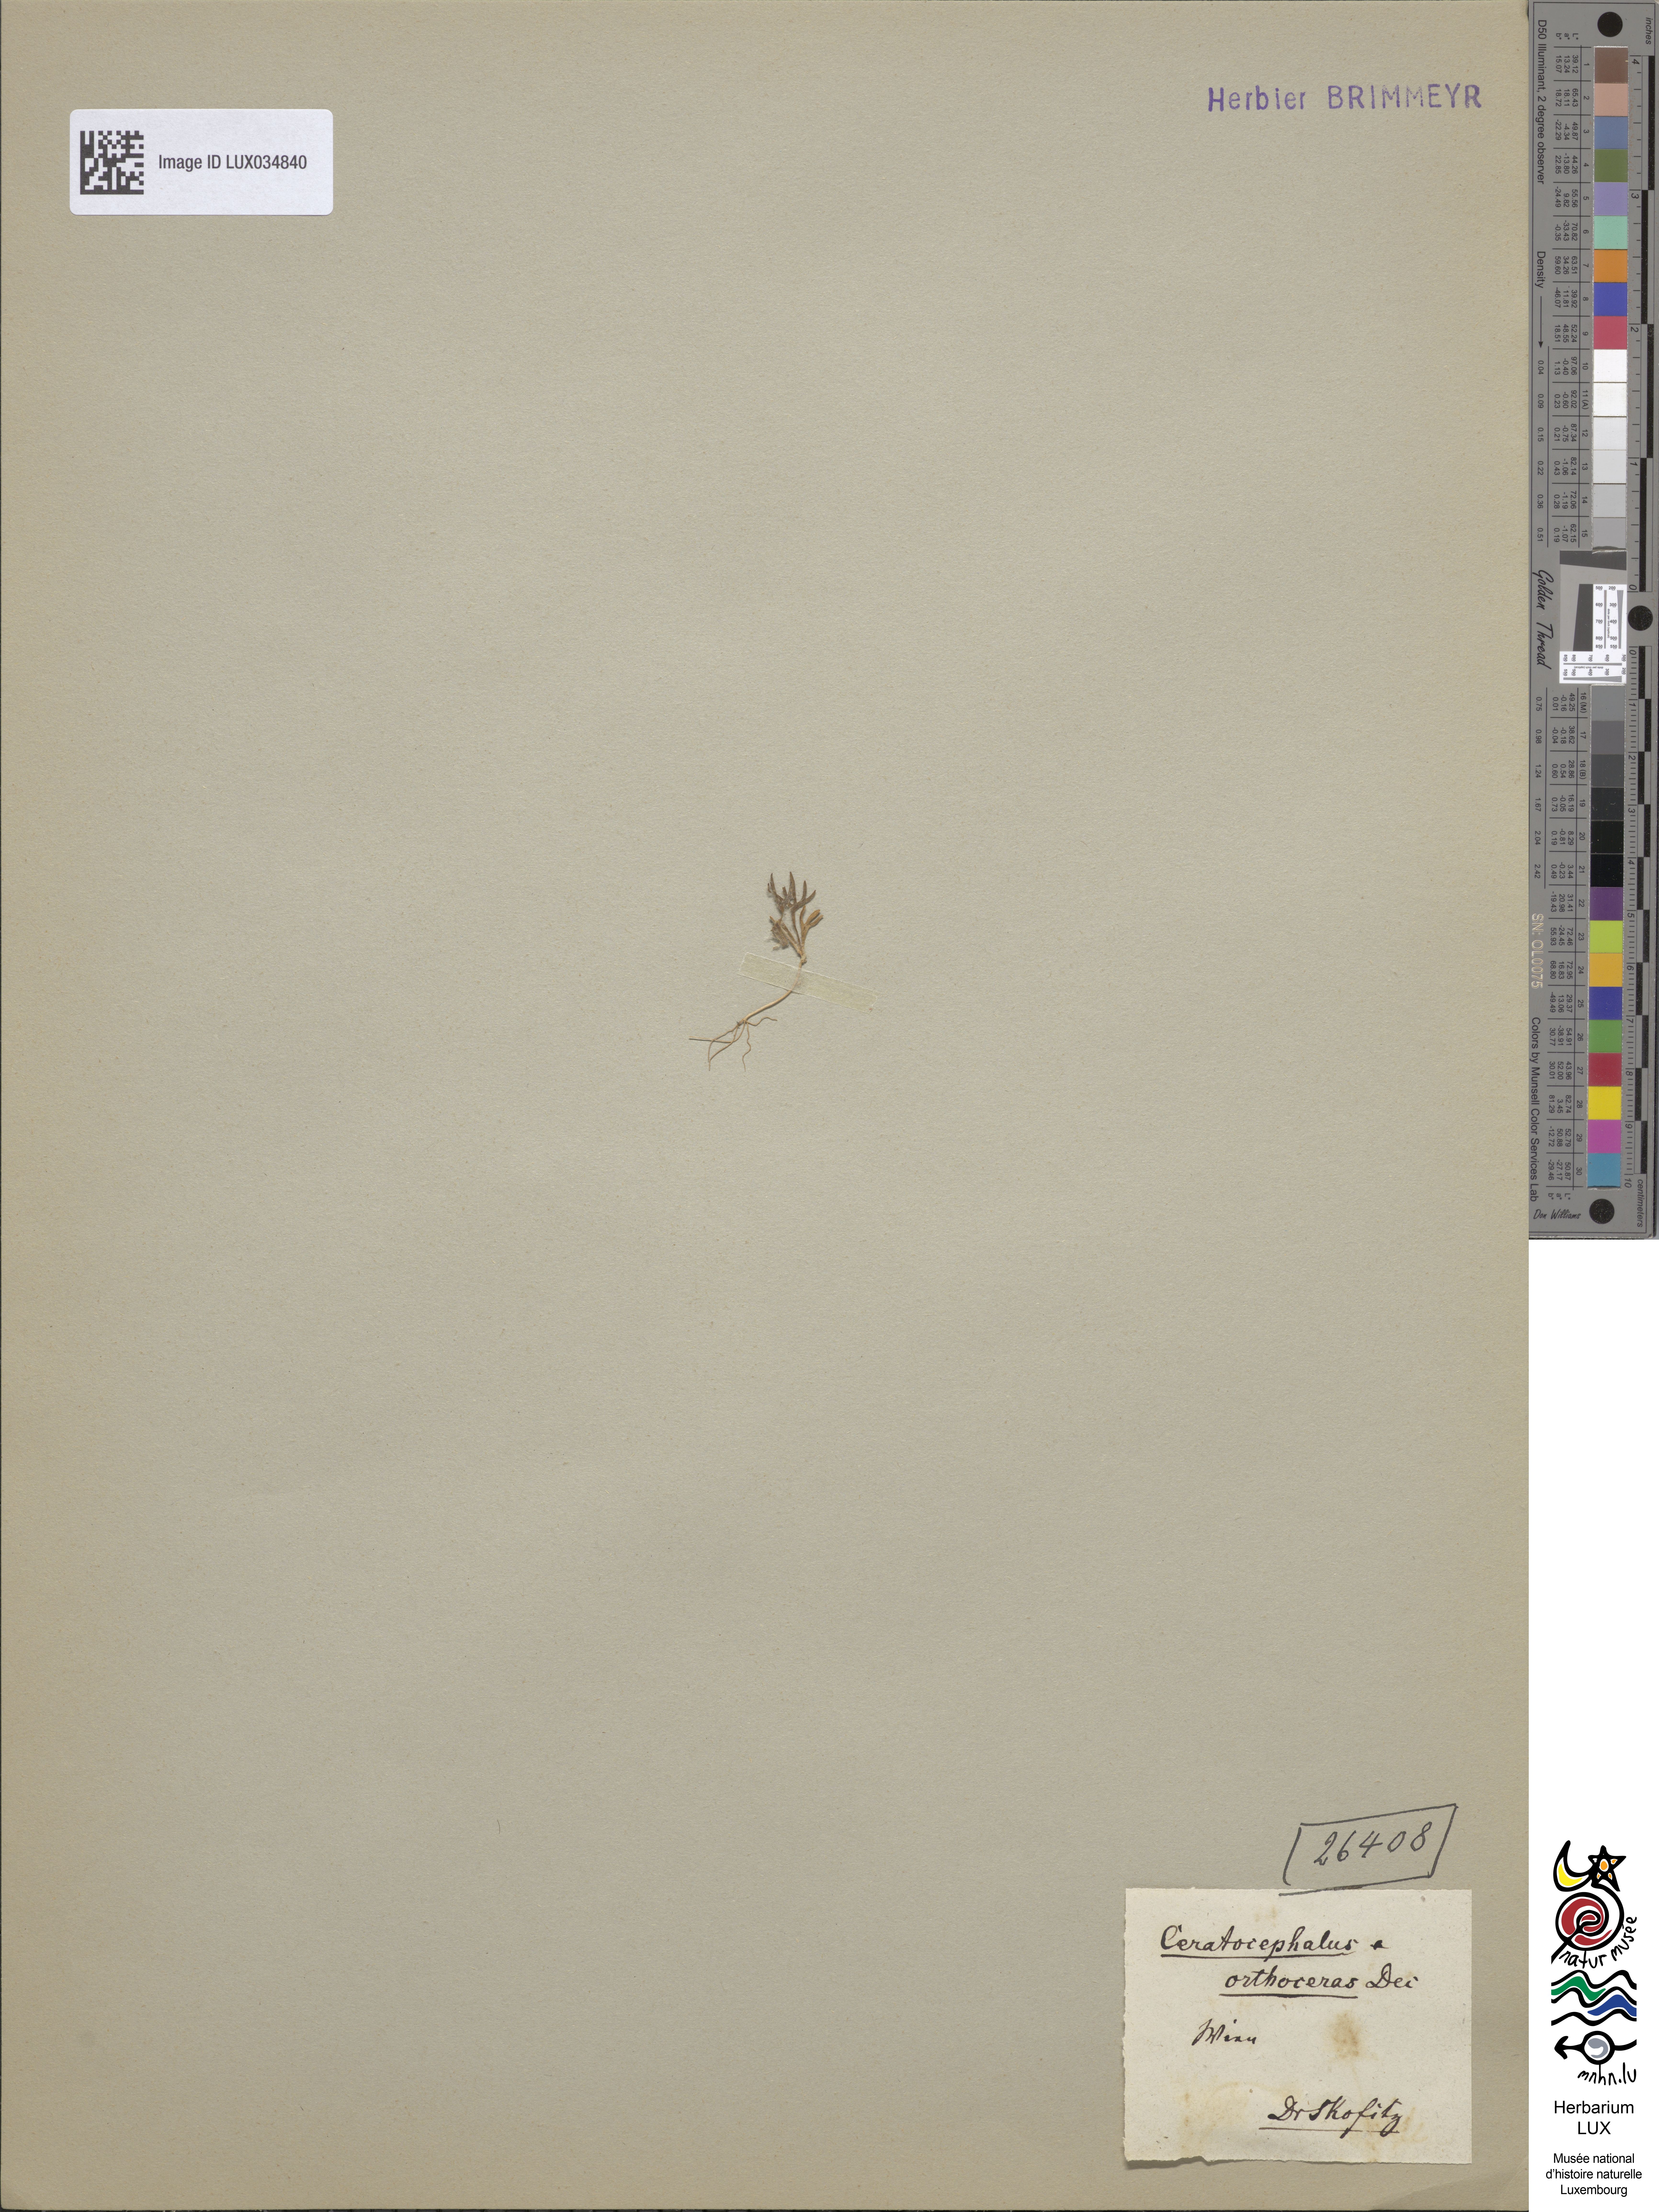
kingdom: Plantae
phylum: Tracheophyta
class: Magnoliopsida
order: Ranunculales
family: Ranunculaceae
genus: Ceratocephala
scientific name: Ceratocephala orthoceras
